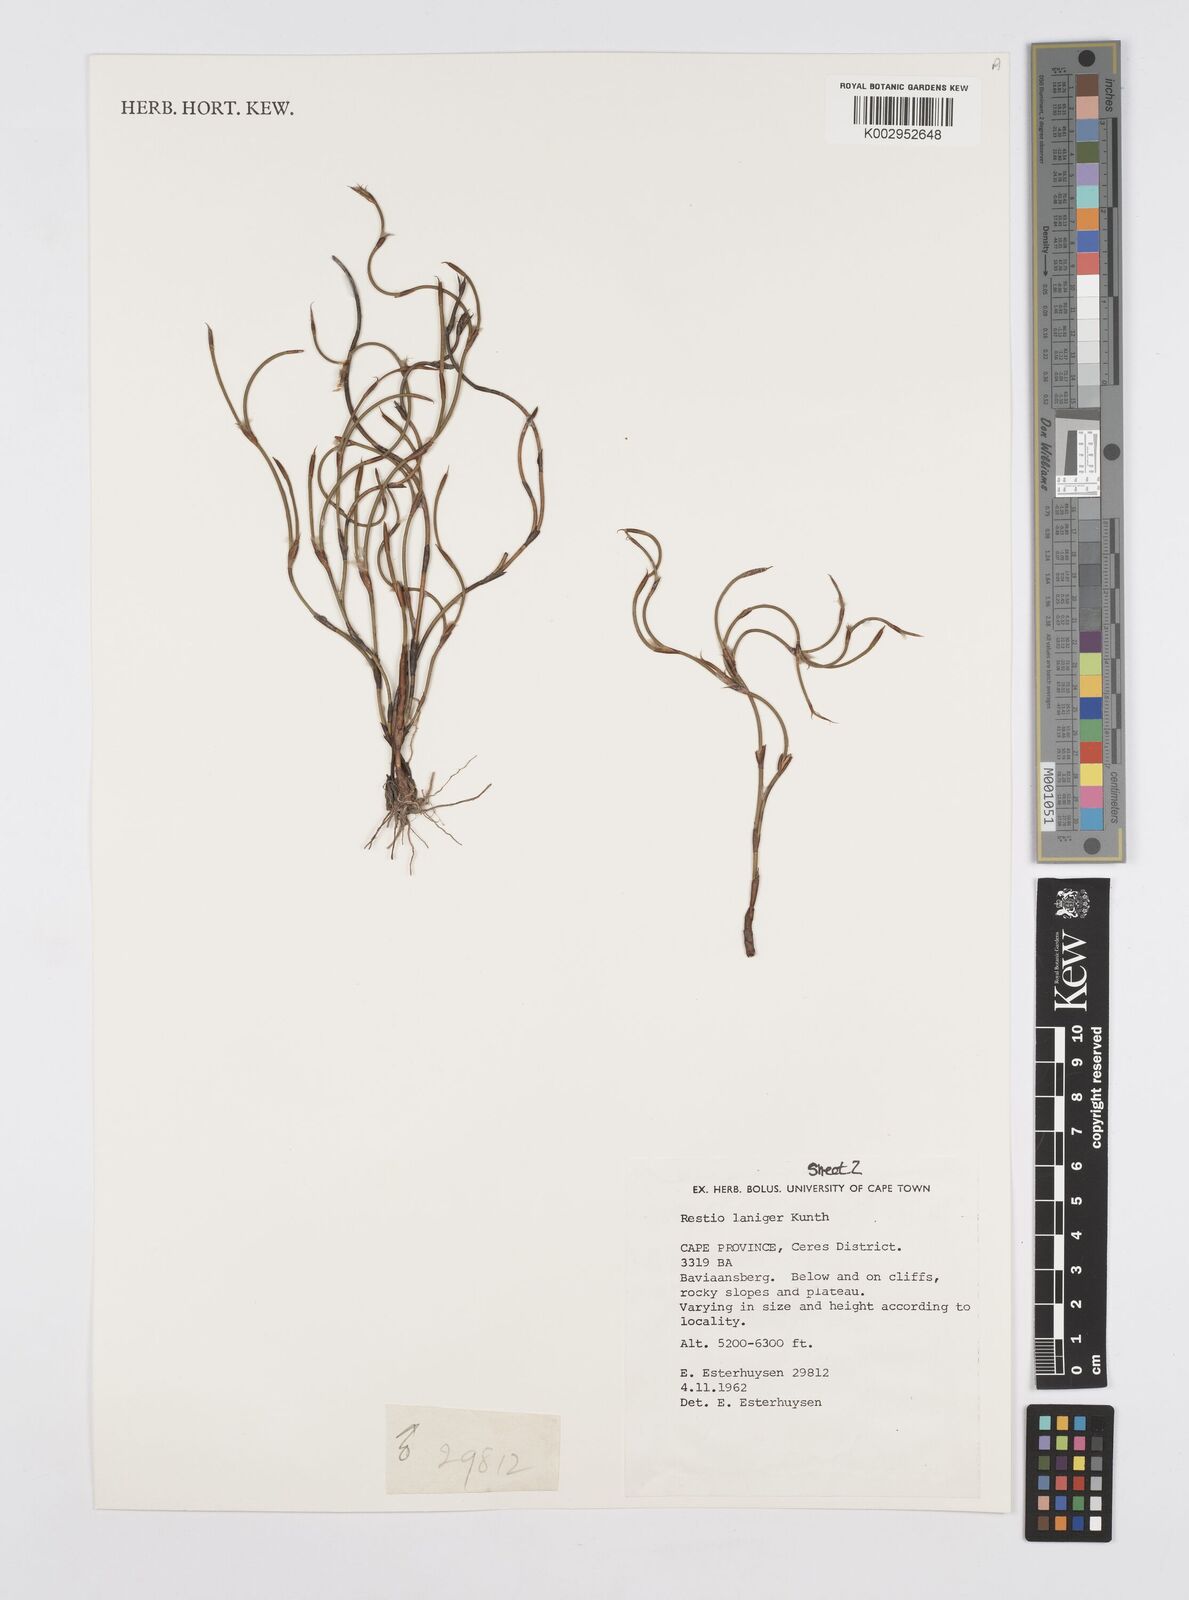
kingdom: Plantae
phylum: Tracheophyta
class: Liliopsida
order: Poales
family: Restionaceae
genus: Restio
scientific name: Restio laniger
